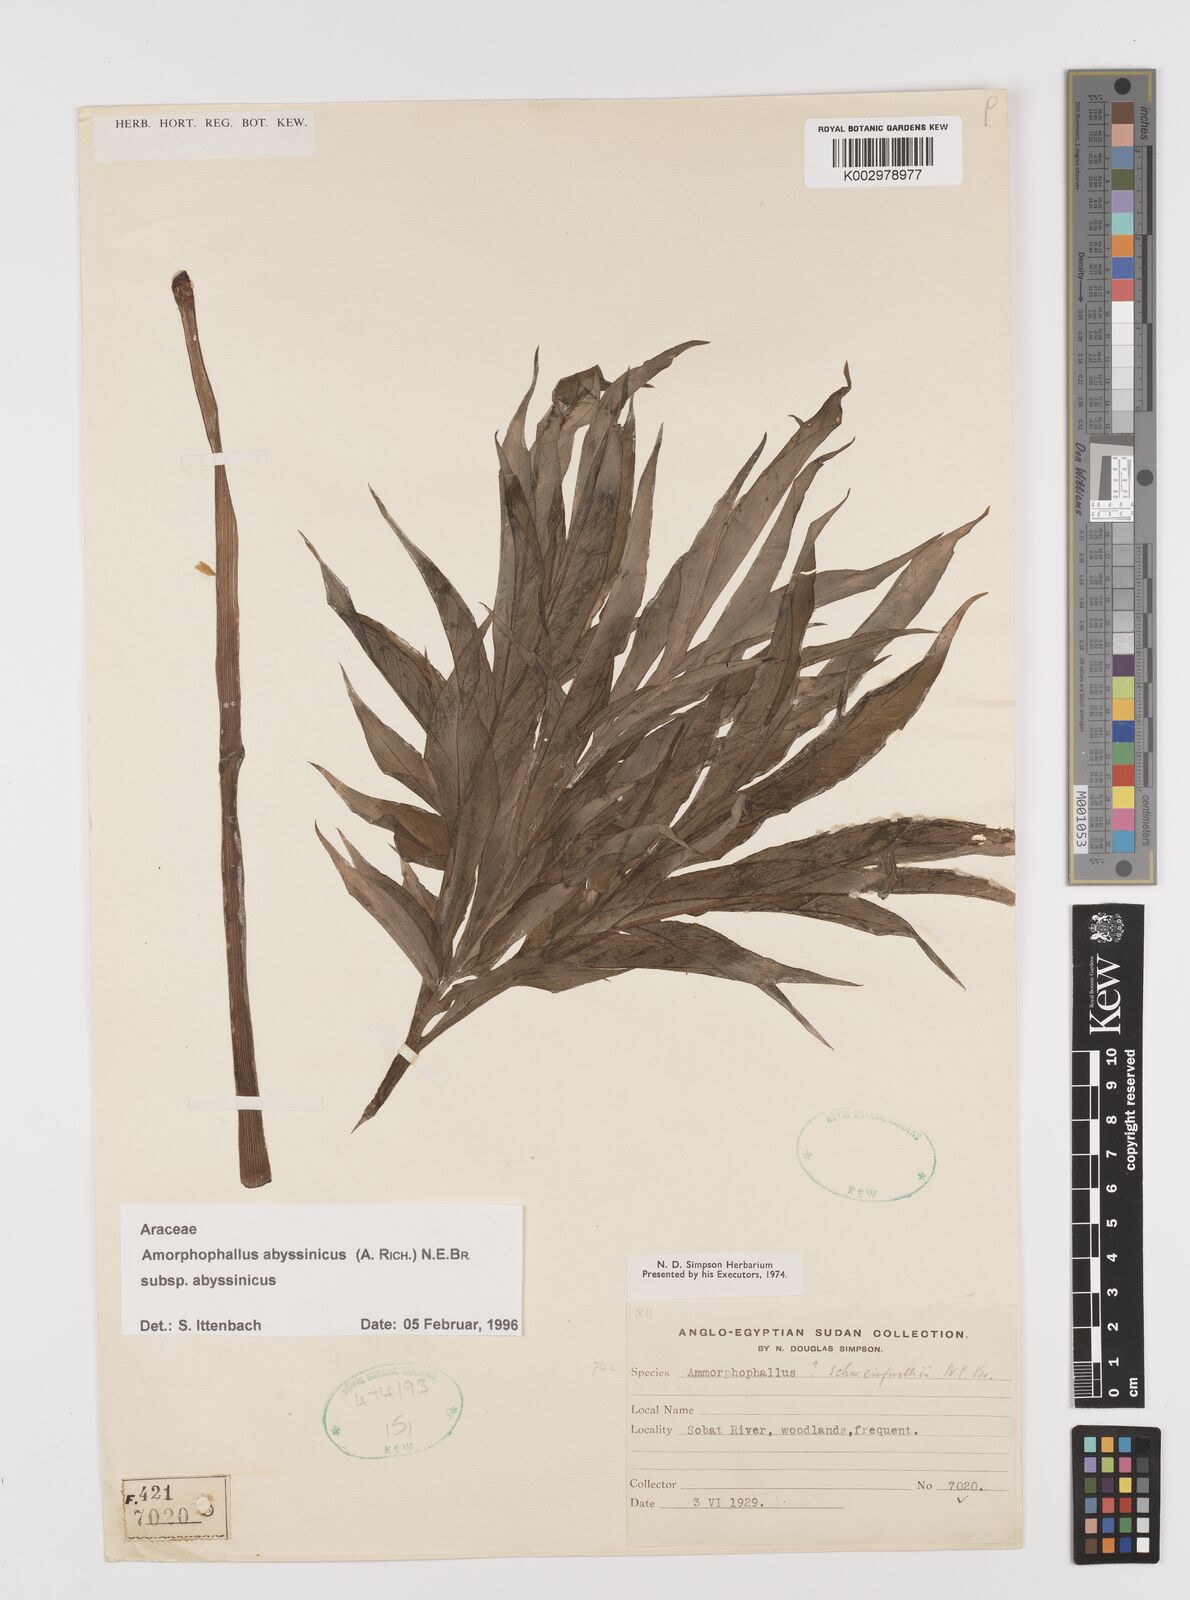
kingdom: Plantae
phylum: Tracheophyta
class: Liliopsida
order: Alismatales
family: Araceae
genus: Amorphophallus
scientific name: Amorphophallus abyssinicus
